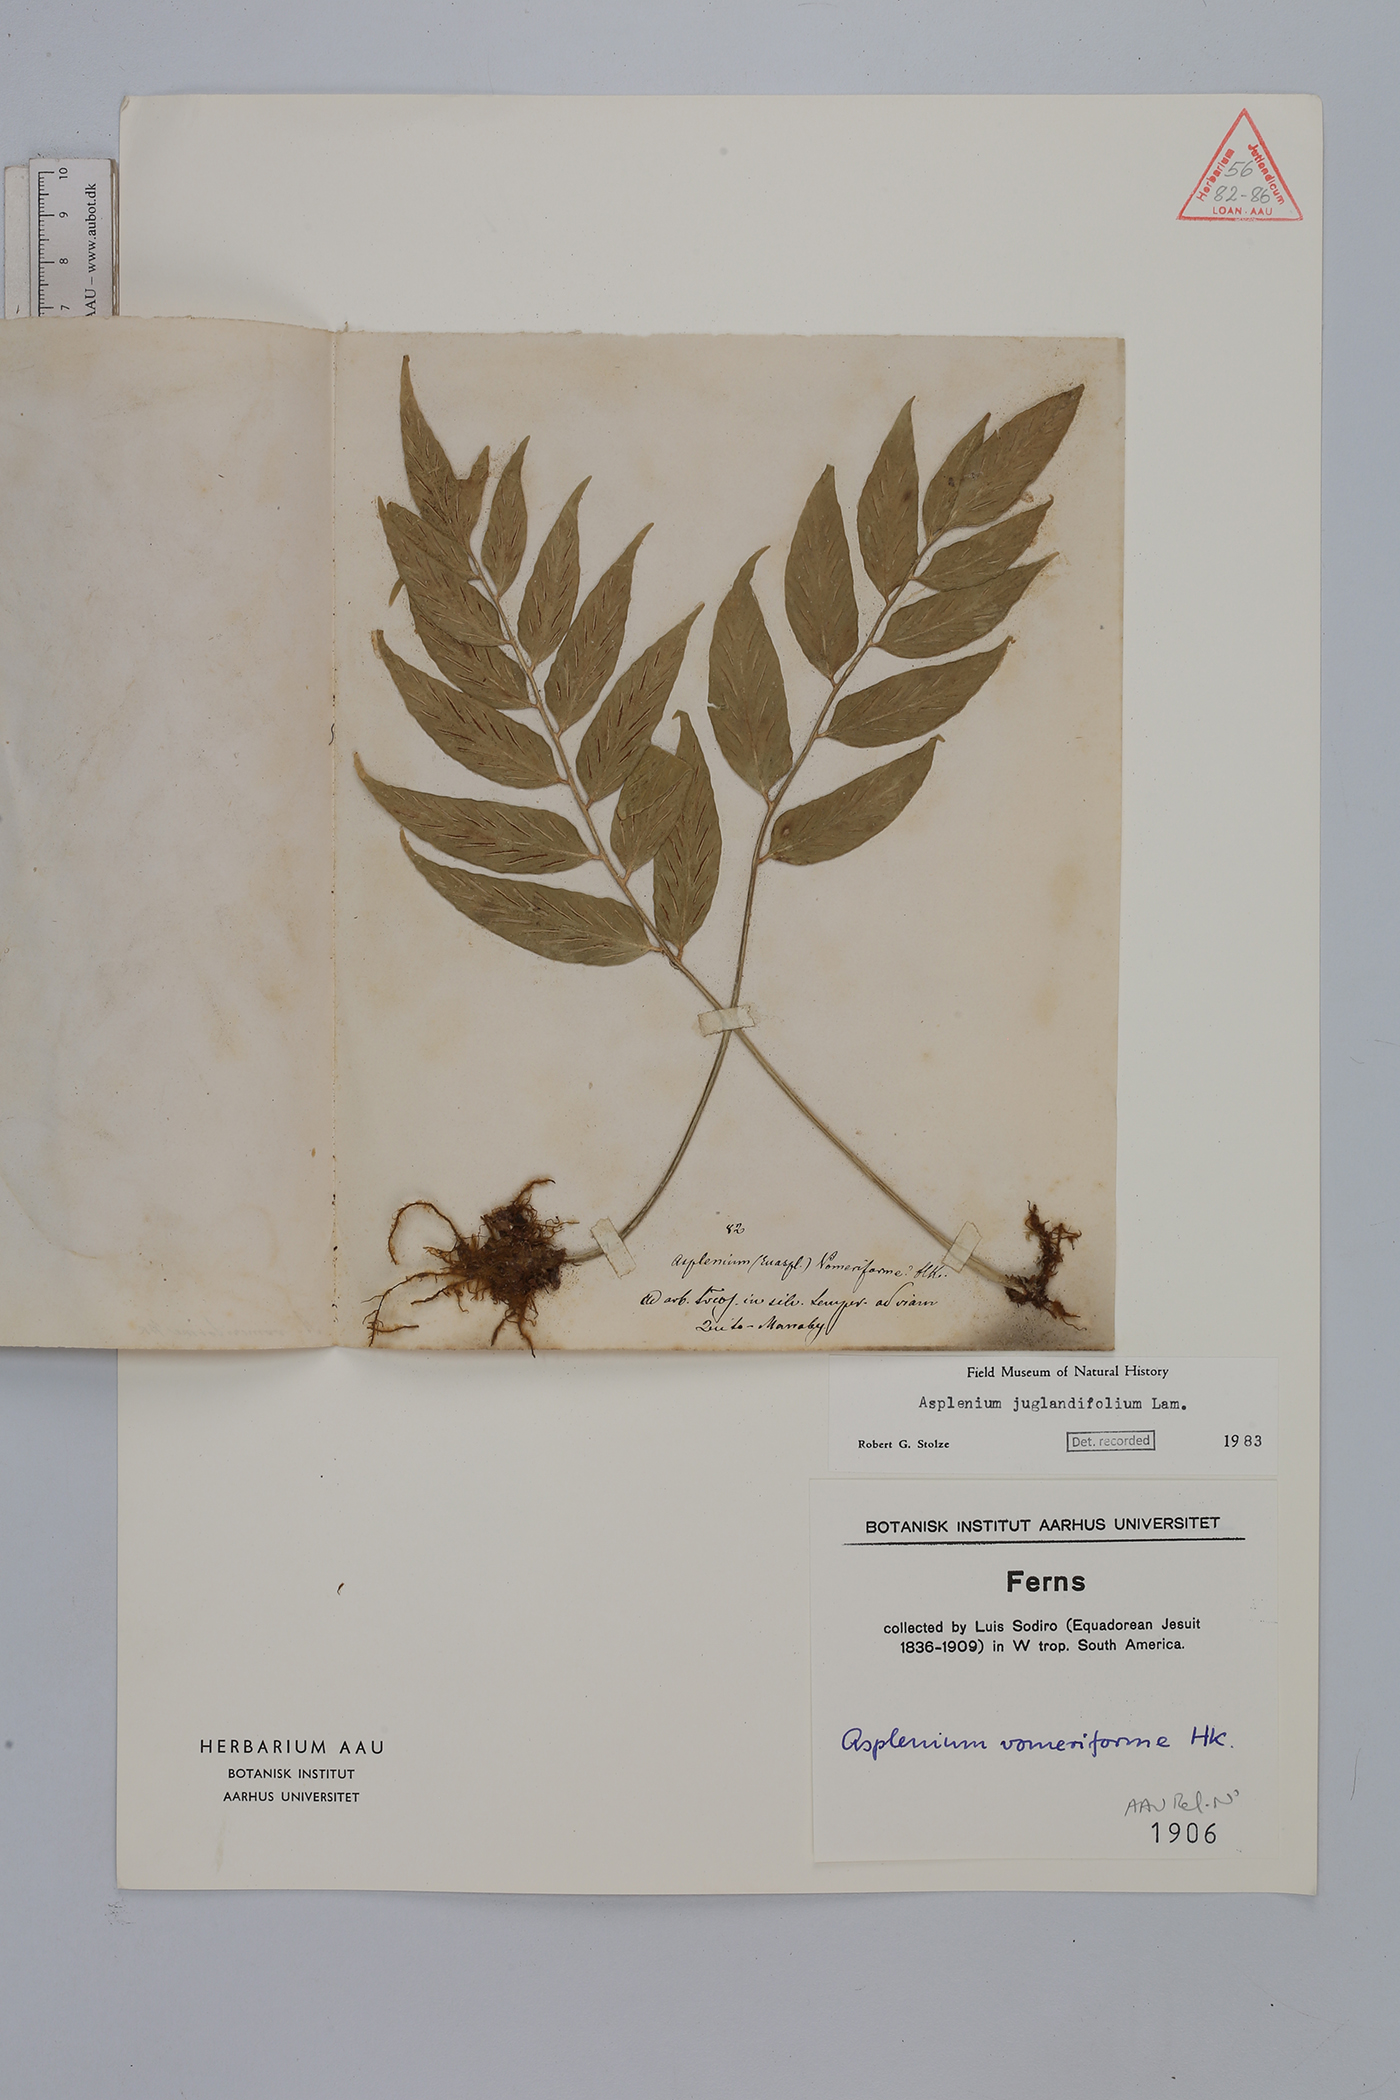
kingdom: Plantae
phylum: Tracheophyta
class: Polypodiopsida
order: Polypodiales
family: Aspleniaceae
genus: Asplenium
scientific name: Asplenium juglandifolium
